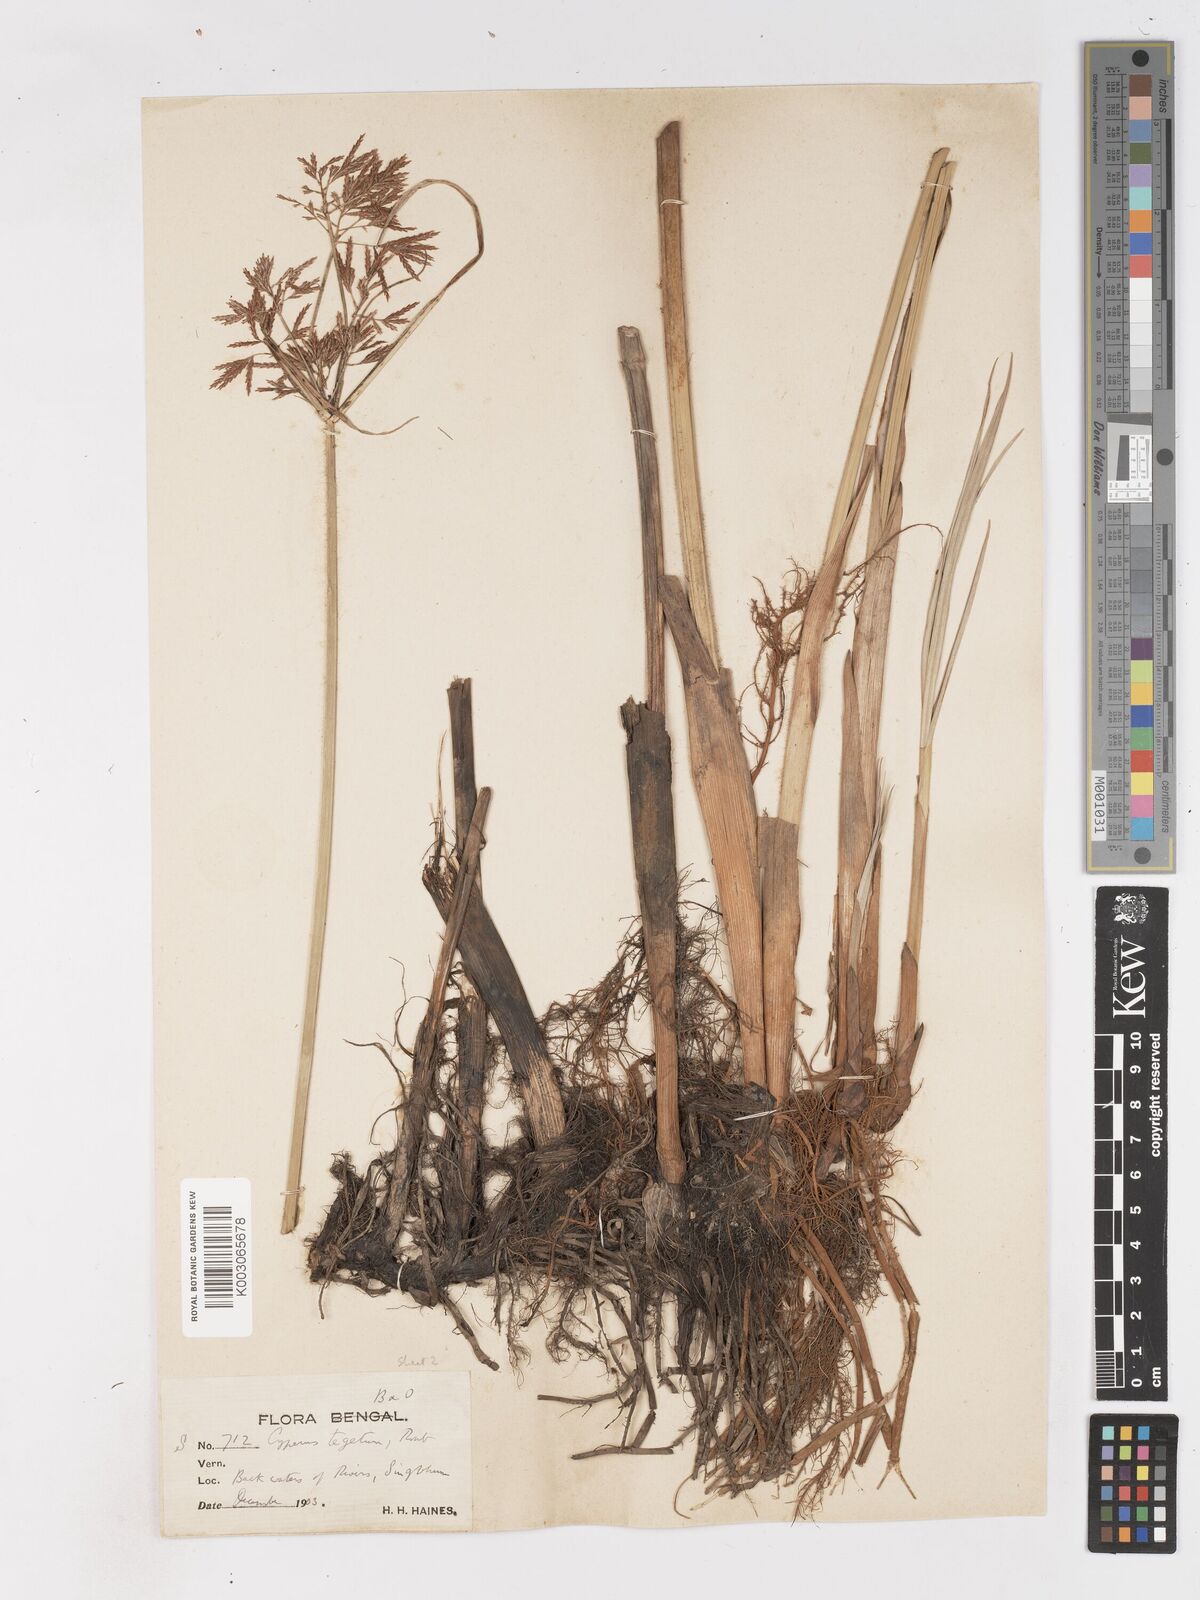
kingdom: Plantae
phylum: Tracheophyta
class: Liliopsida
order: Poales
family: Cyperaceae
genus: Cyperus
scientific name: Cyperus pangorei
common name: Mat sedge
